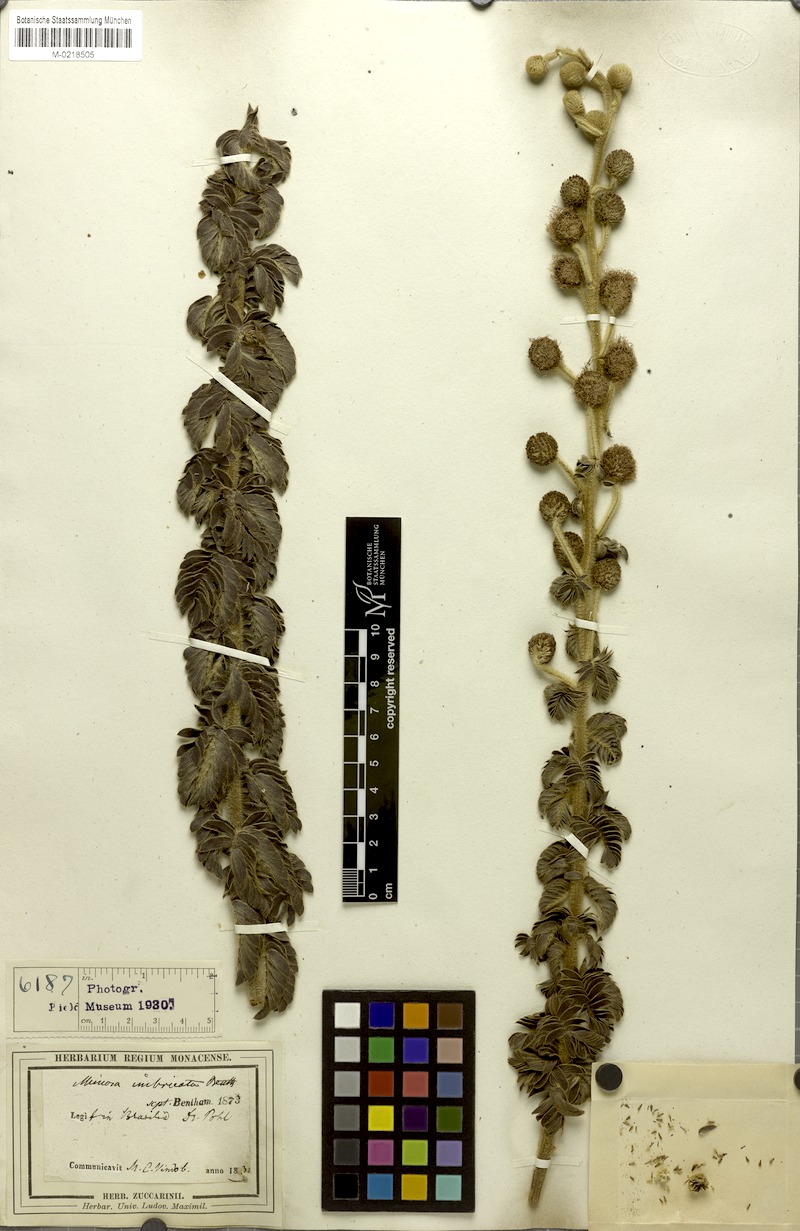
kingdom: Plantae
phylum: Tracheophyta
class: Magnoliopsida
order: Fabales
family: Fabaceae
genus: Mimosa
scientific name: Mimosa radula
